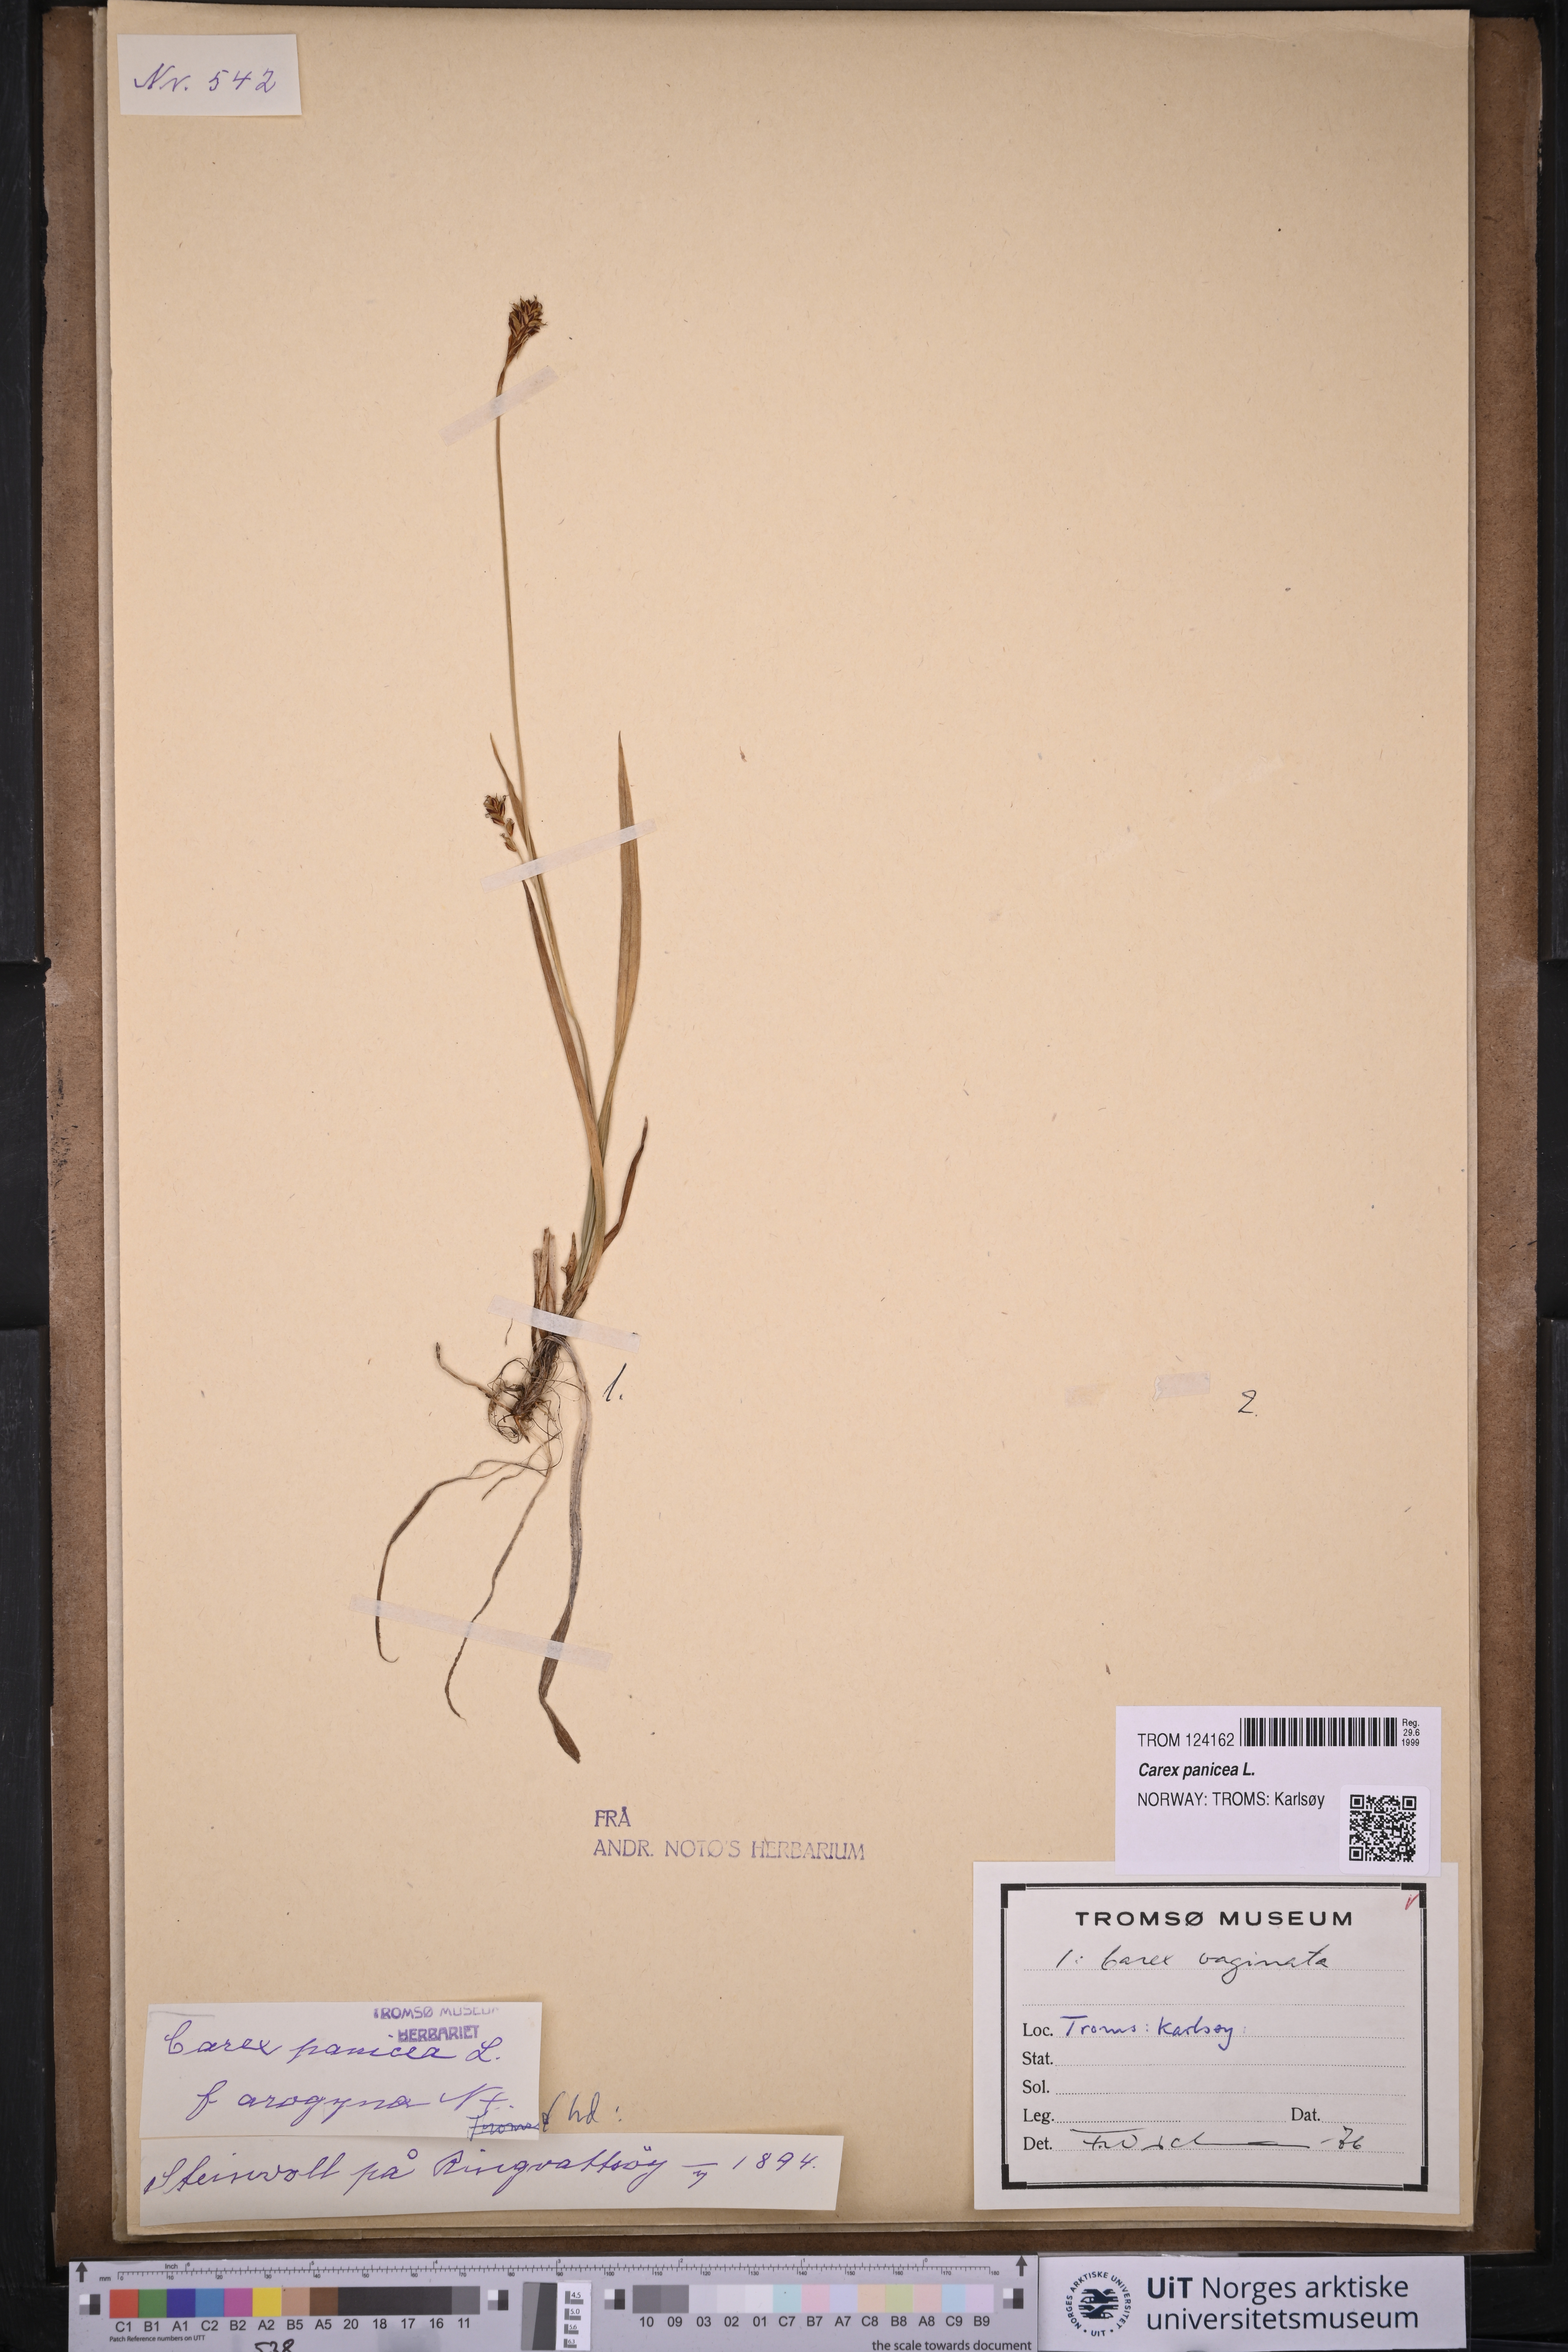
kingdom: Plantae
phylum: Tracheophyta
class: Liliopsida
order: Poales
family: Cyperaceae
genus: Carex
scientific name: Carex panicea
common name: Carnation sedge
